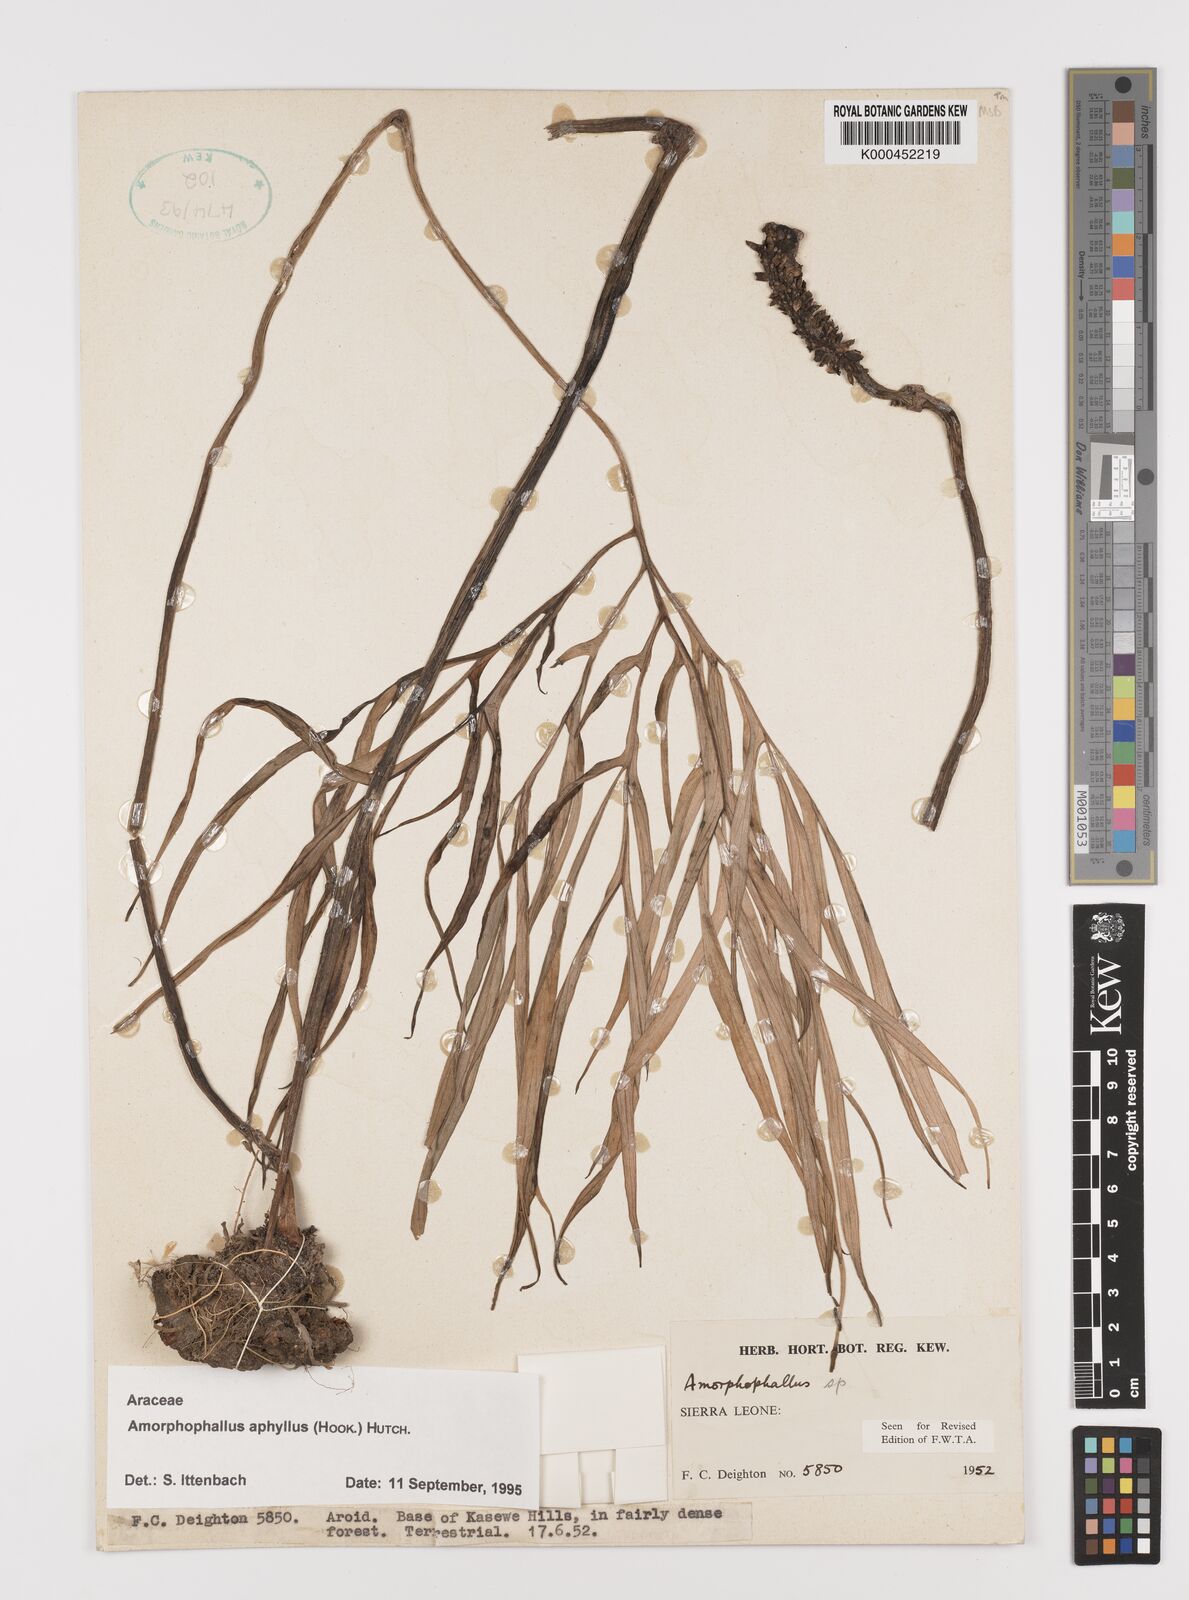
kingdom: Plantae
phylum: Tracheophyta
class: Liliopsida
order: Alismatales
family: Araceae
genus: Amorphophallus
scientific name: Amorphophallus aphyllus
